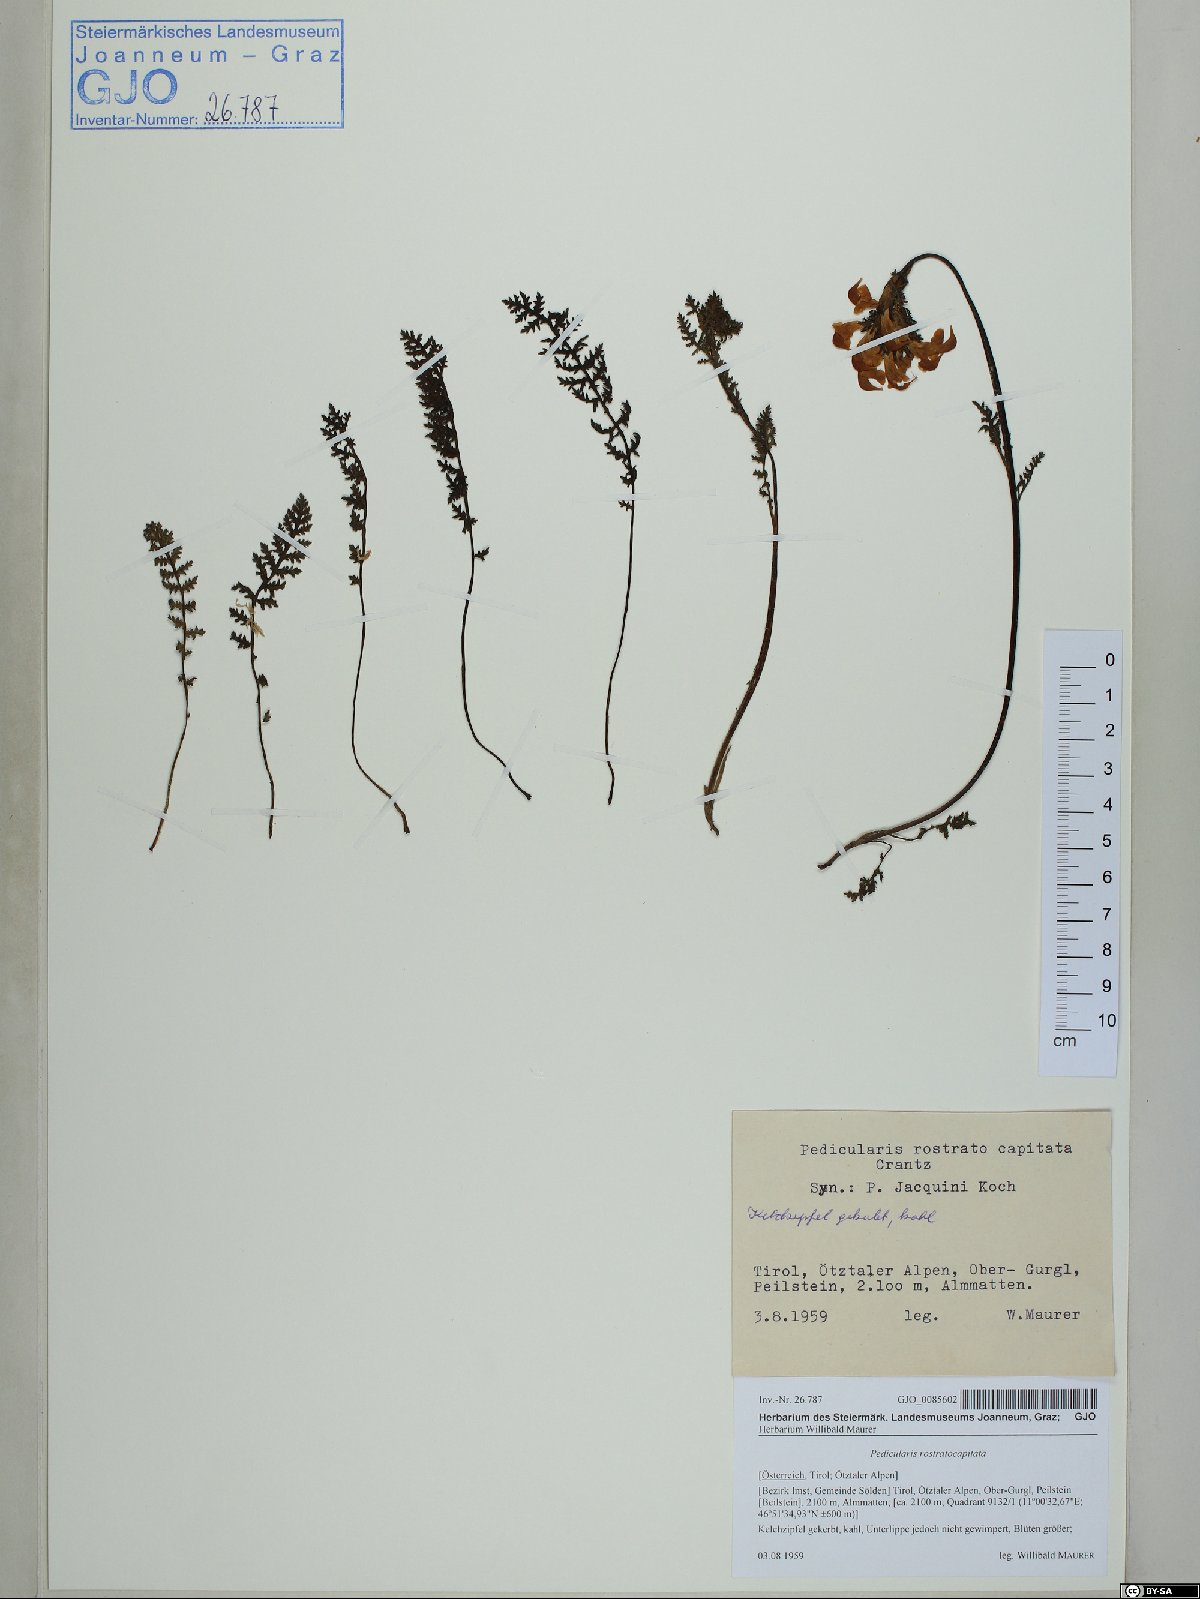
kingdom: Plantae
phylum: Tracheophyta
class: Magnoliopsida
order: Lamiales
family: Orobanchaceae
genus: Pedicularis
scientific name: Pedicularis rostratocapitata
